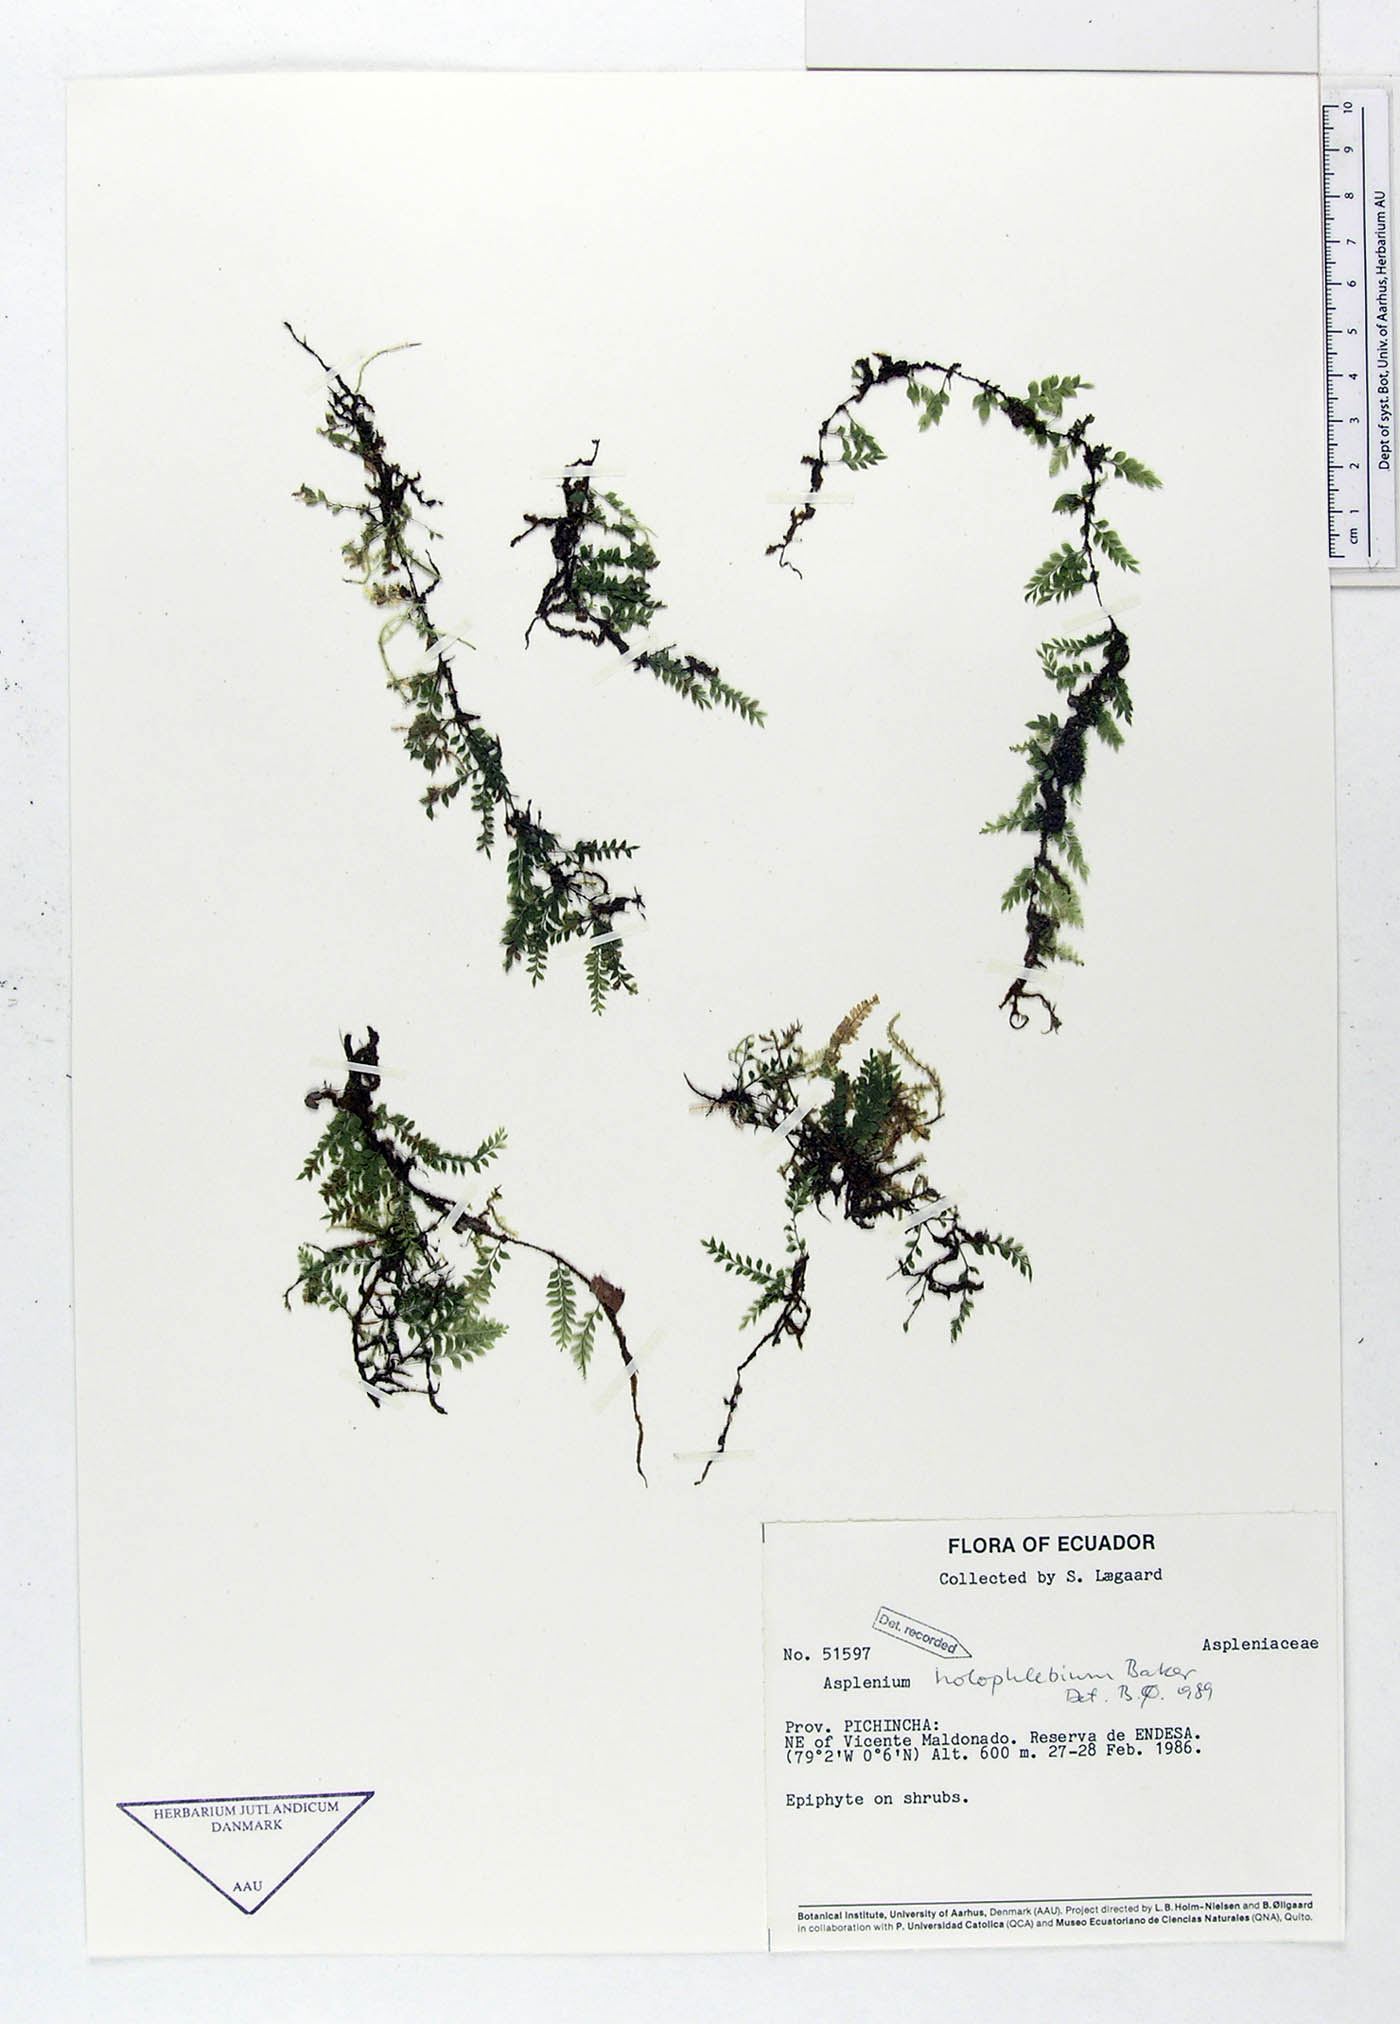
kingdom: Plantae
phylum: Tracheophyta
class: Polypodiopsida
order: Polypodiales
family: Aspleniaceae
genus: Asplenium
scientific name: Asplenium holophlebium
